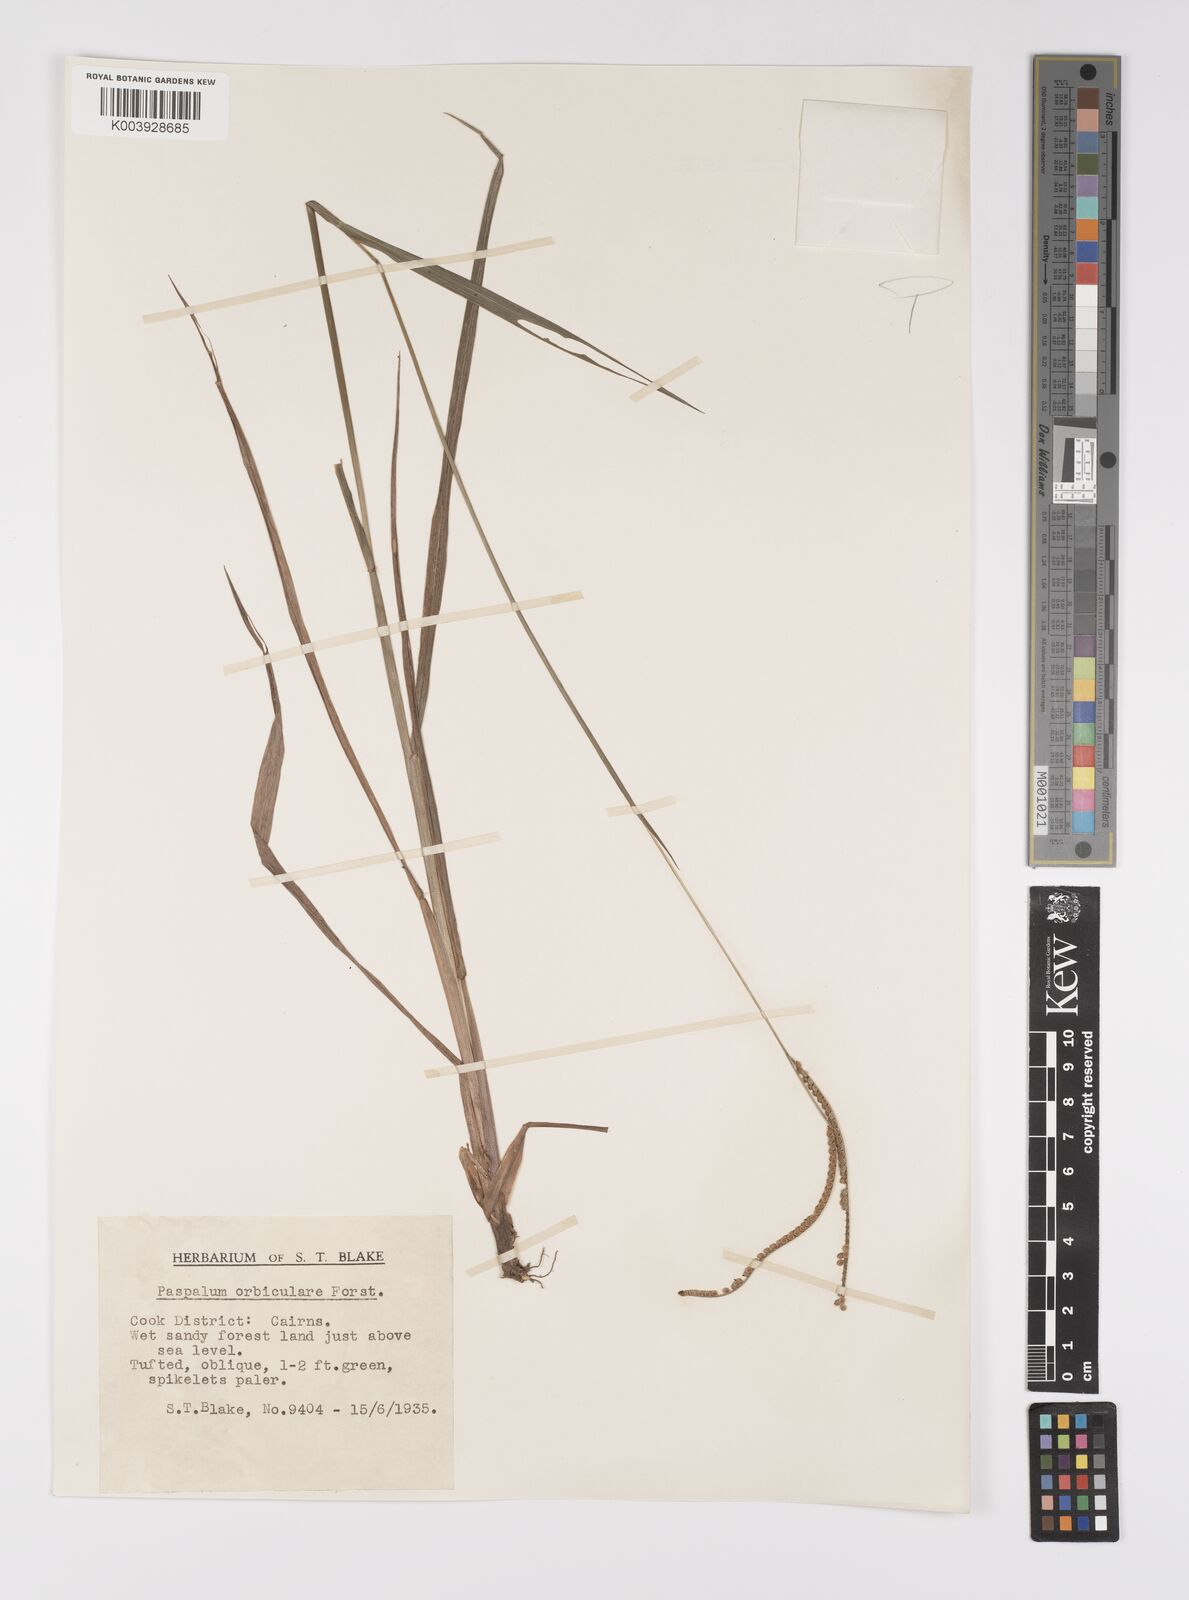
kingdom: Plantae
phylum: Tracheophyta
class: Liliopsida
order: Poales
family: Poaceae
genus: Paspalum
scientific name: Paspalum scrobiculatum
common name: Kodo millet
